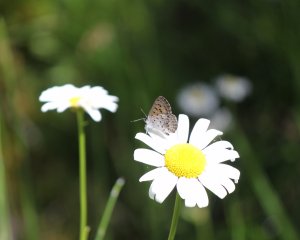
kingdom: Animalia
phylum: Arthropoda
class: Insecta
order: Lepidoptera
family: Lycaenidae
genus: Lycaena
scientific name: Lycaena mariposa
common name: Mariposa Copper
